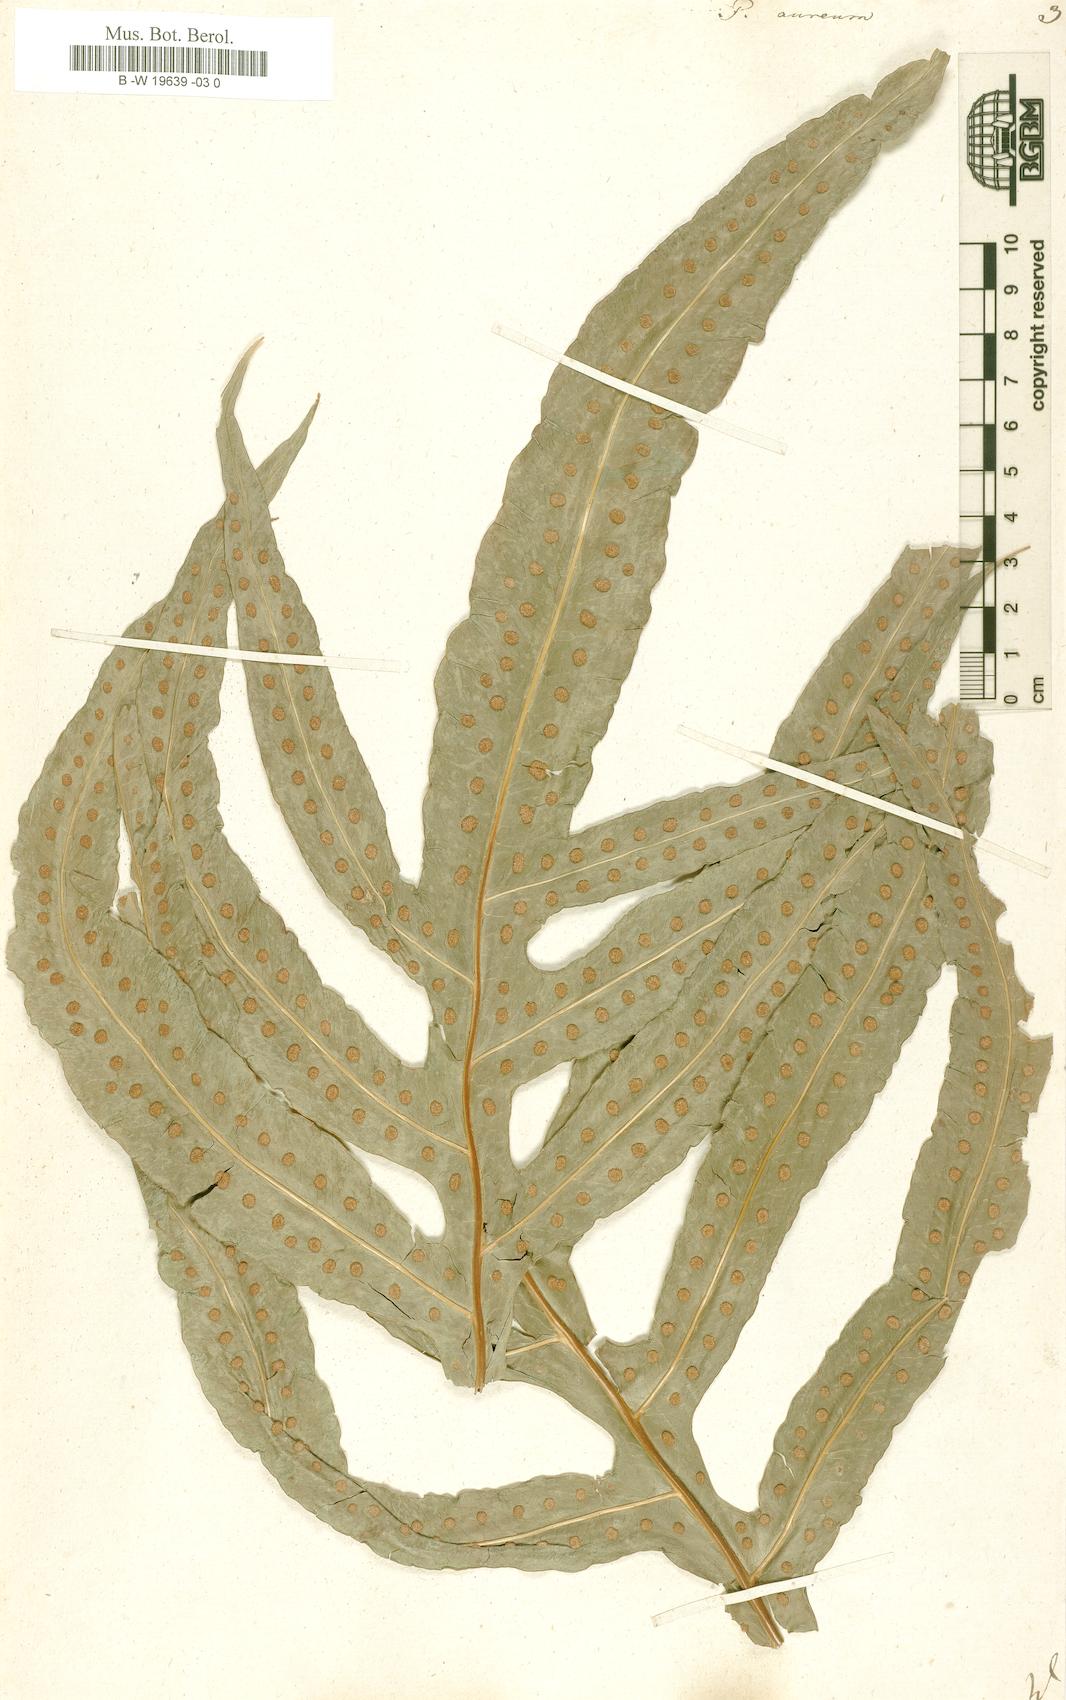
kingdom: Plantae
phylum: Tracheophyta
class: Polypodiopsida
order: Polypodiales
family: Polypodiaceae
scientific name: Polypodiaceae
